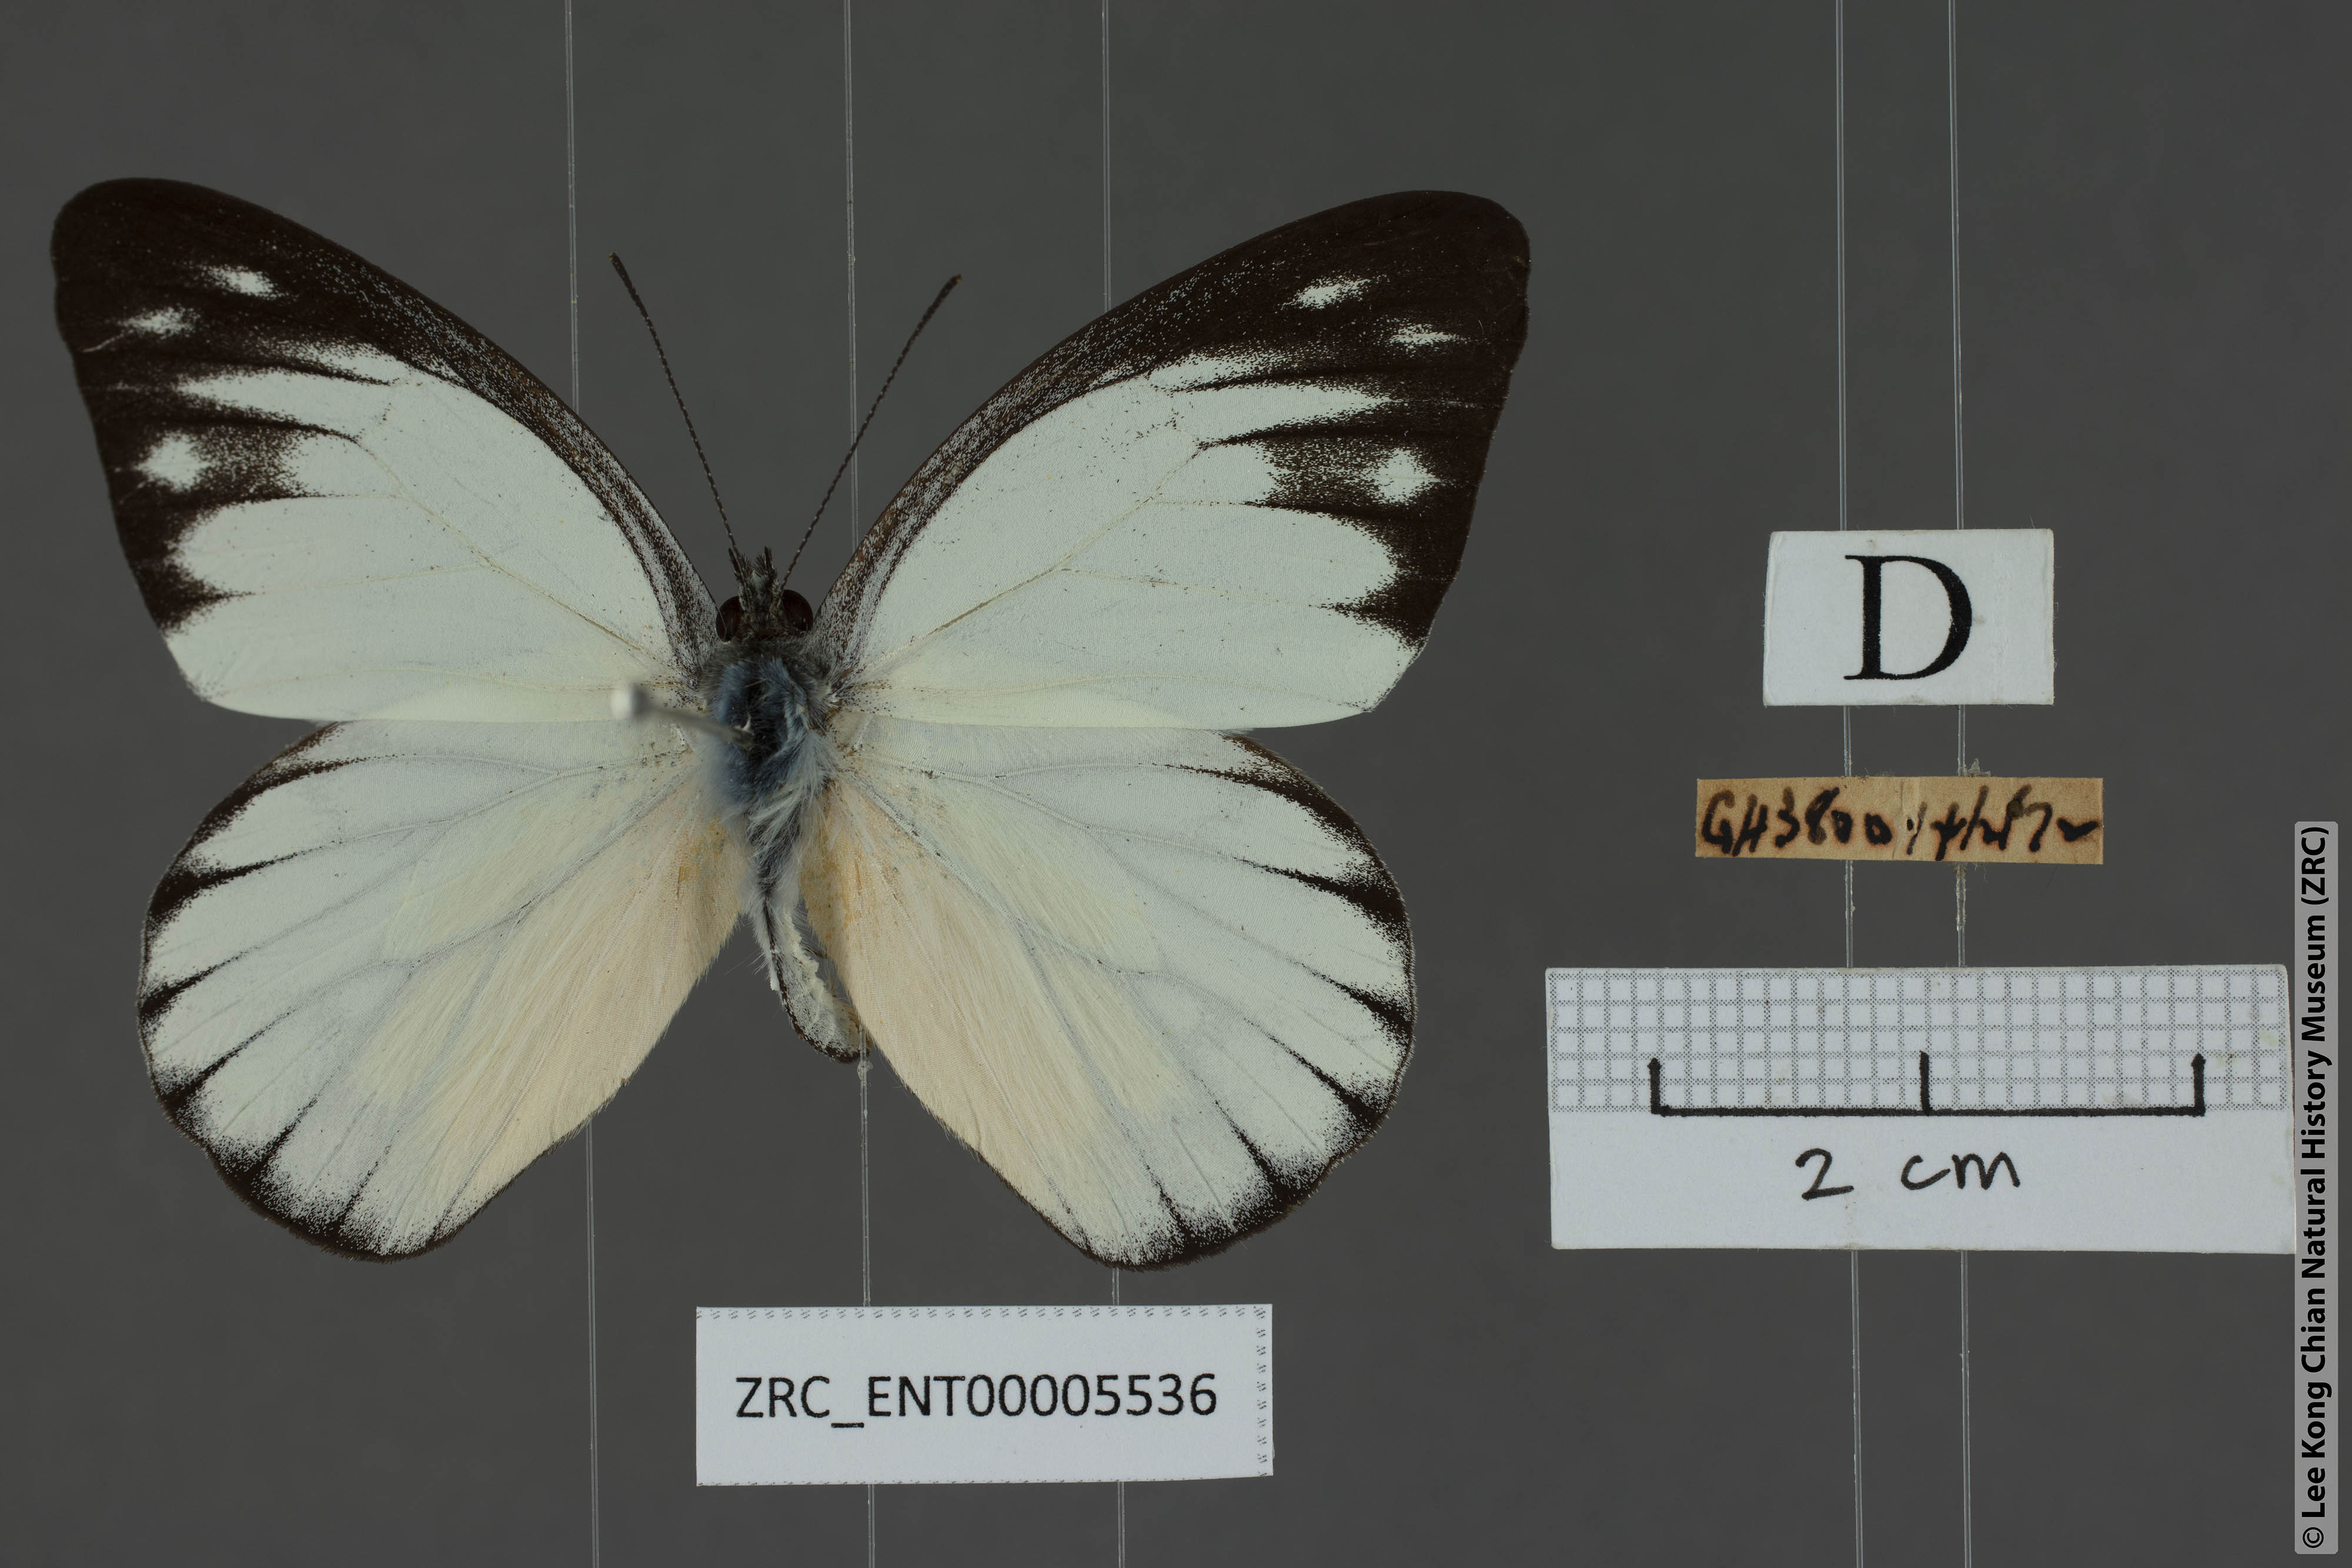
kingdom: Animalia
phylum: Arthropoda
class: Insecta
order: Lepidoptera
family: Pieridae
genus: Appias
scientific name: Appias cardena
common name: Yellow puffin
